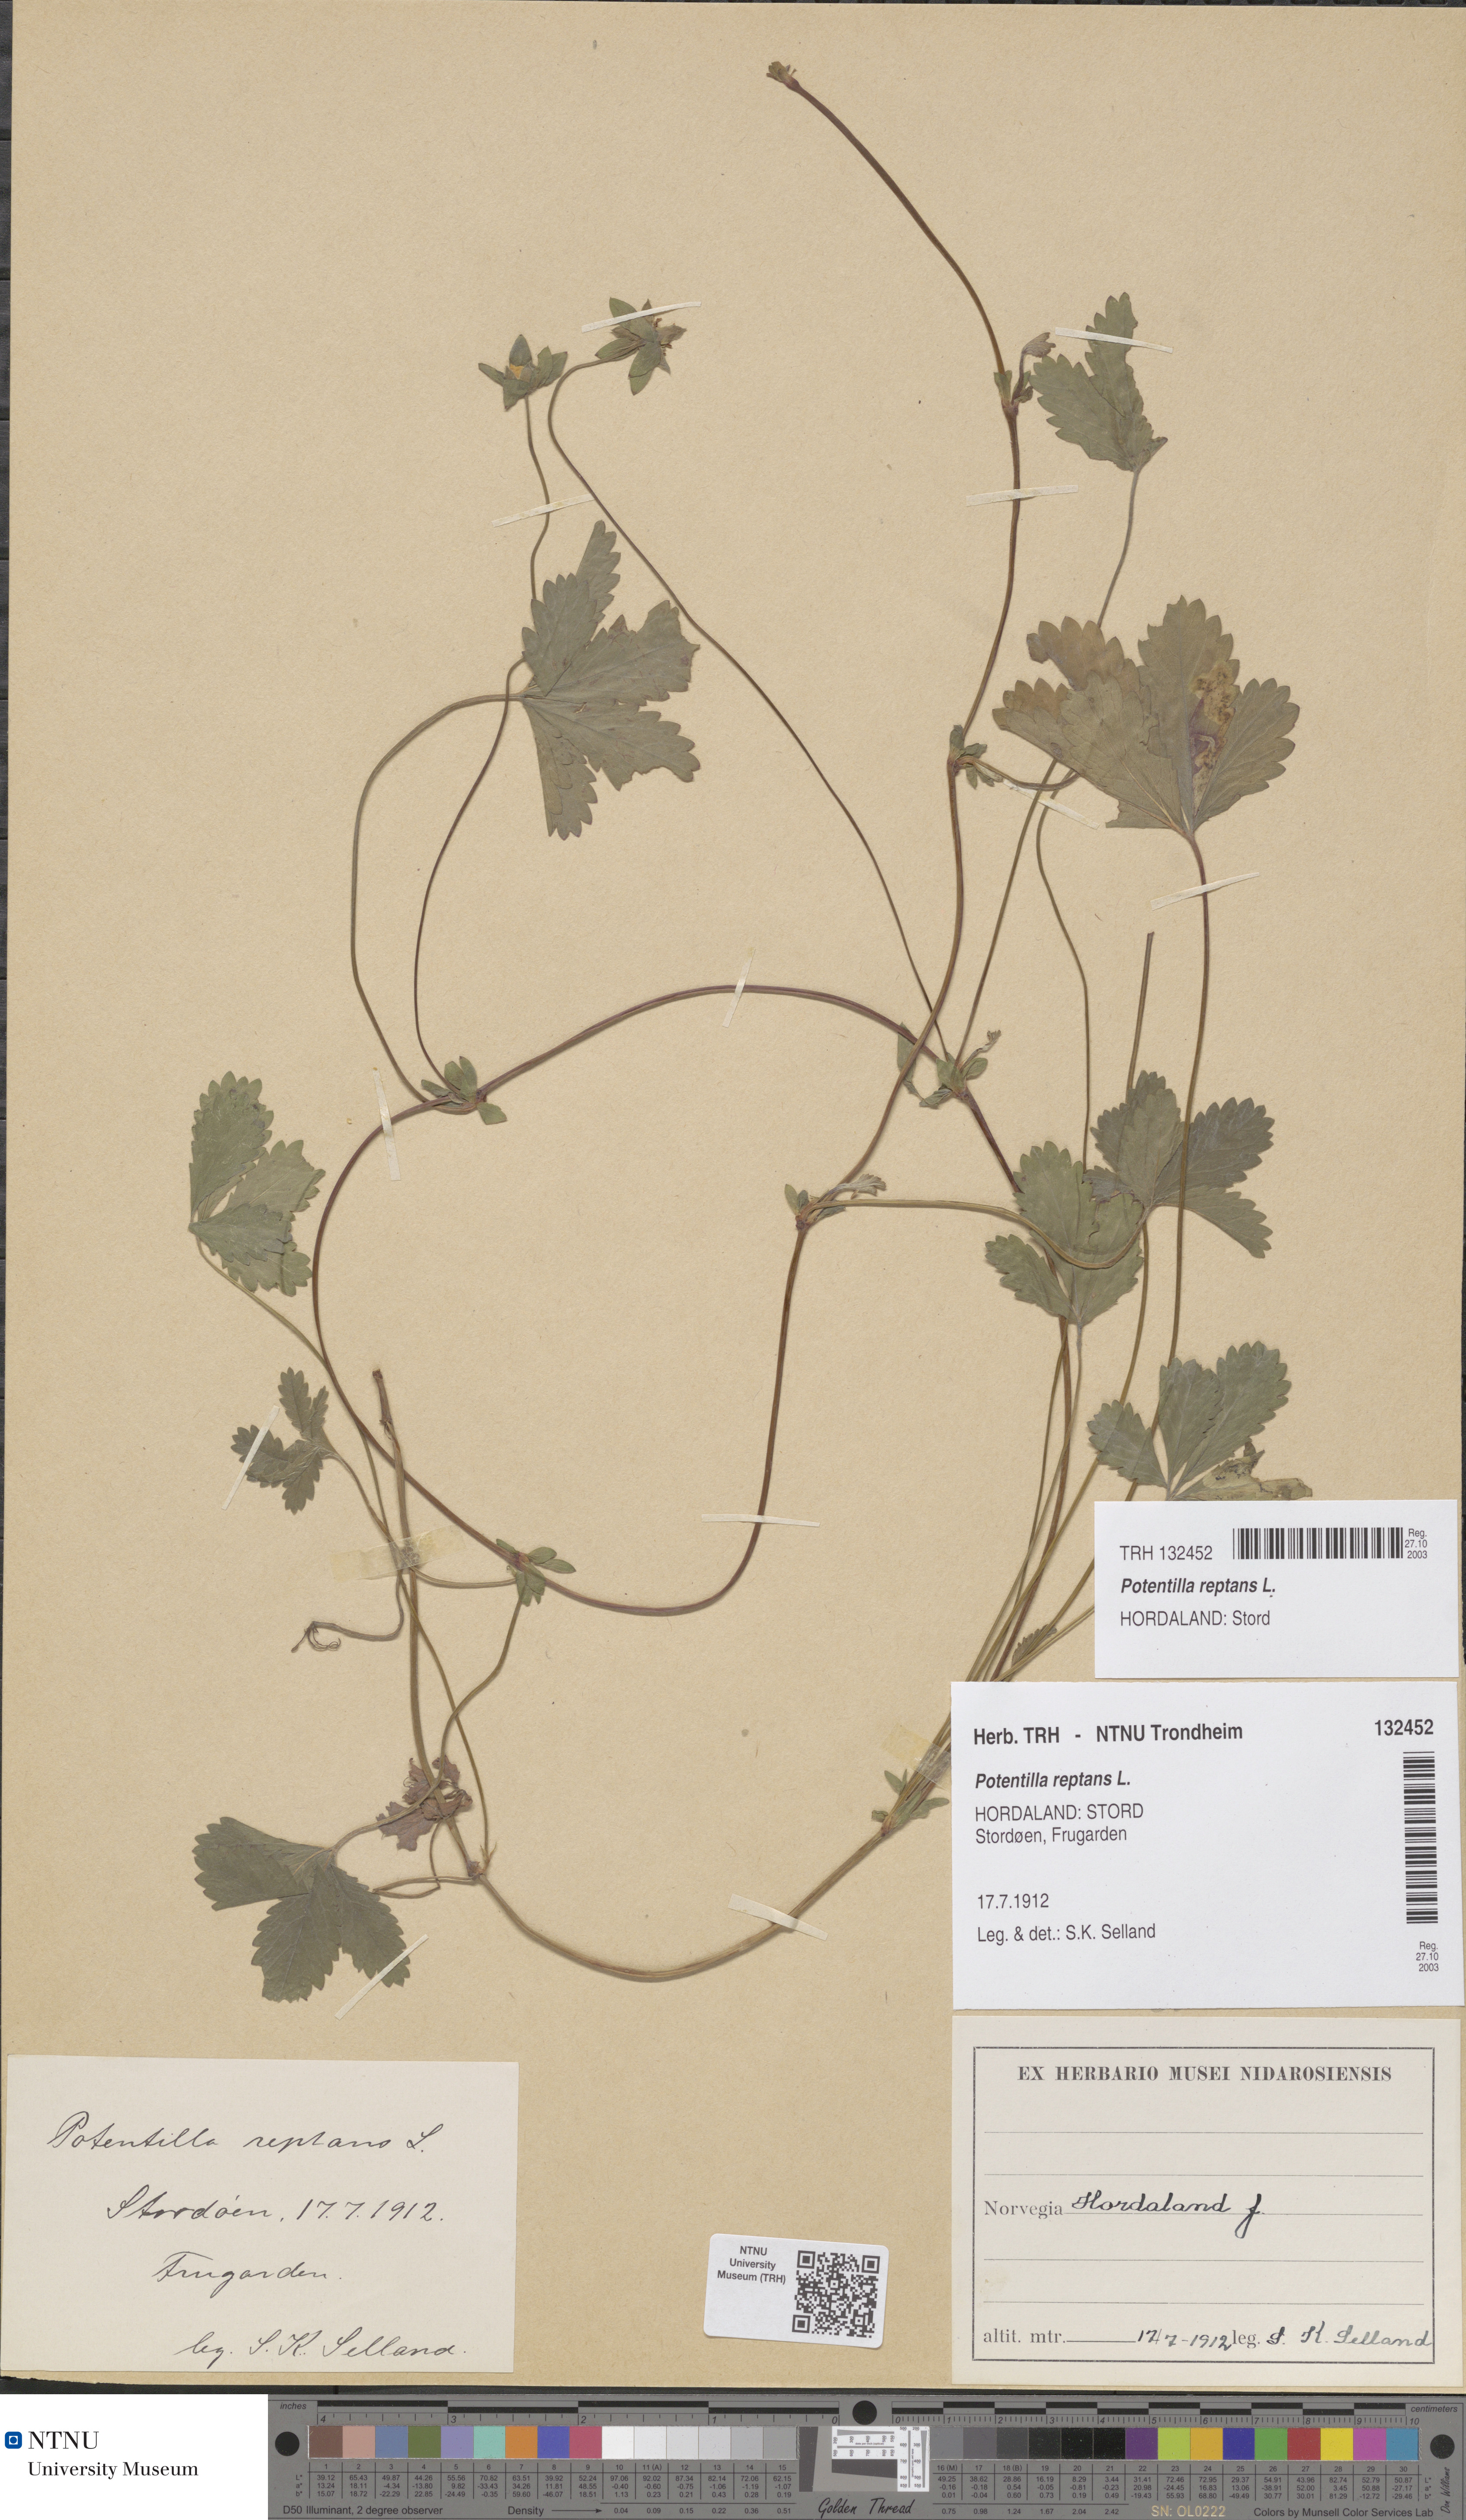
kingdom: Plantae
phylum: Tracheophyta
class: Magnoliopsida
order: Rosales
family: Rosaceae
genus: Potentilla
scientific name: Potentilla reptans
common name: Creeping cinquefoil
